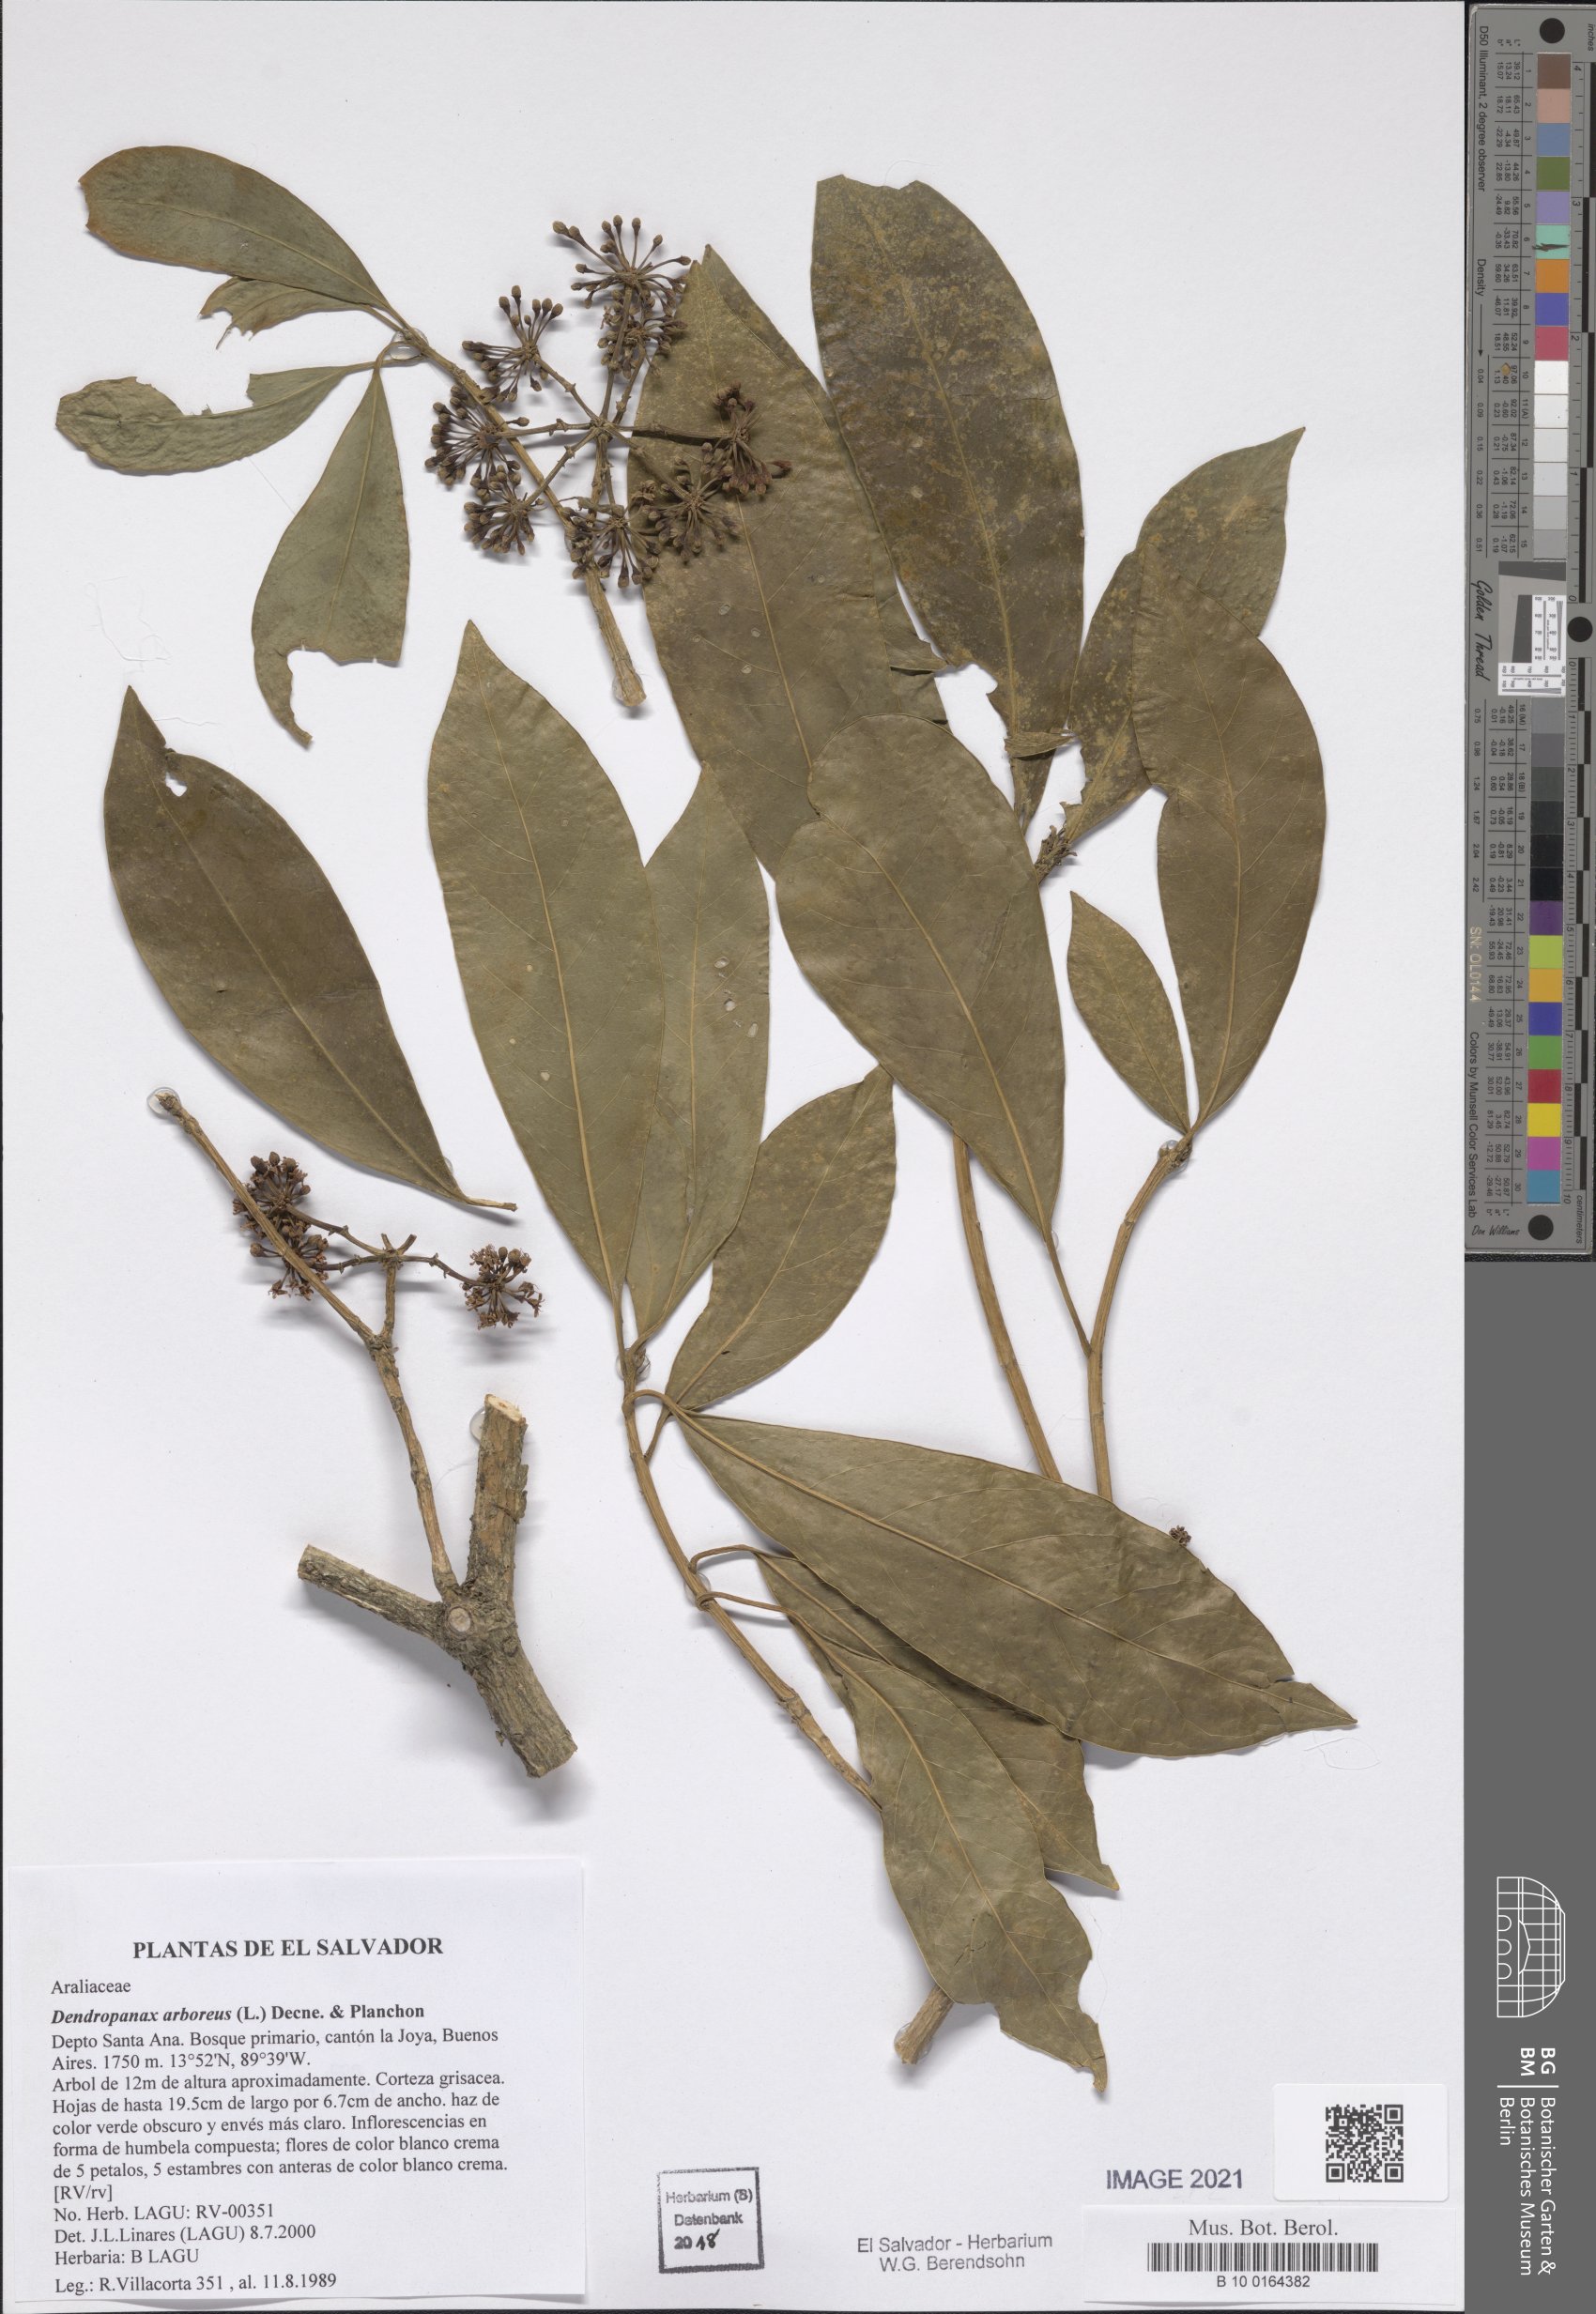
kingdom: Plantae
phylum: Tracheophyta
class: Magnoliopsida
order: Apiales
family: Araliaceae
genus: Dendropanax
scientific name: Dendropanax arboreus
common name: Potato-wood
